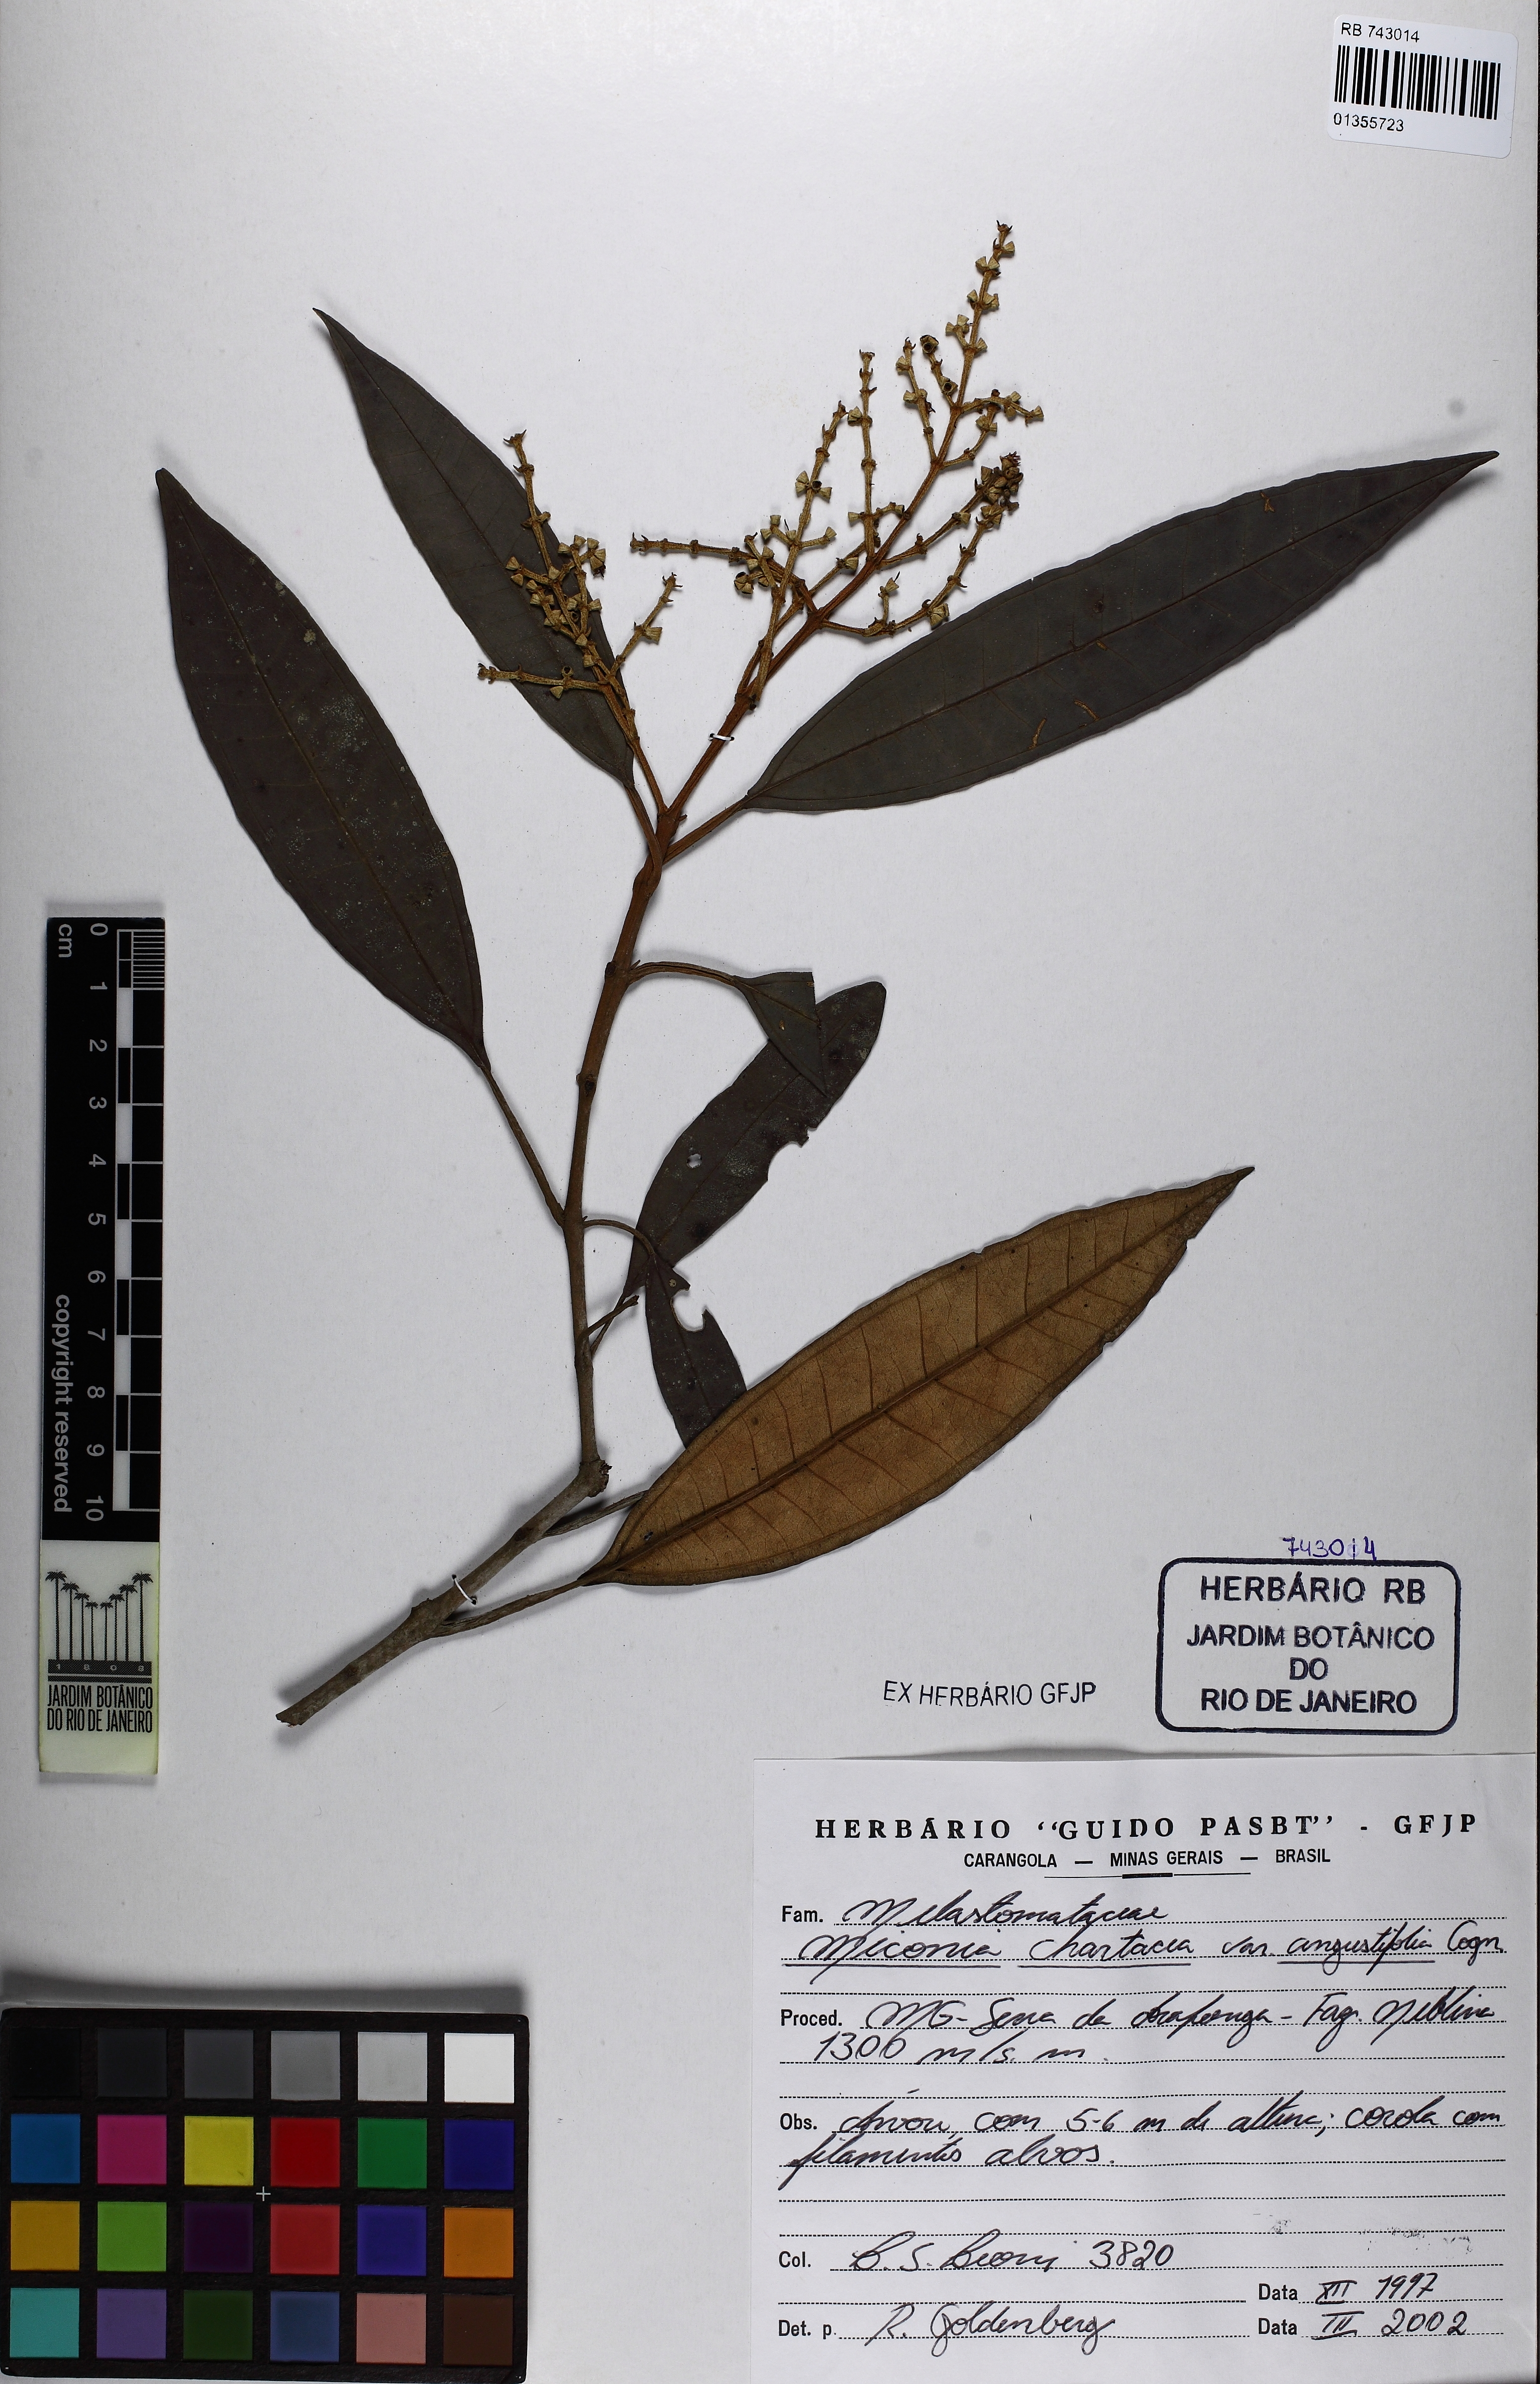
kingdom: Plantae
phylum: Tracheophyta
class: Magnoliopsida
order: Myrtales
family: Melastomataceae
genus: Miconia
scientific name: Miconia chartacea
